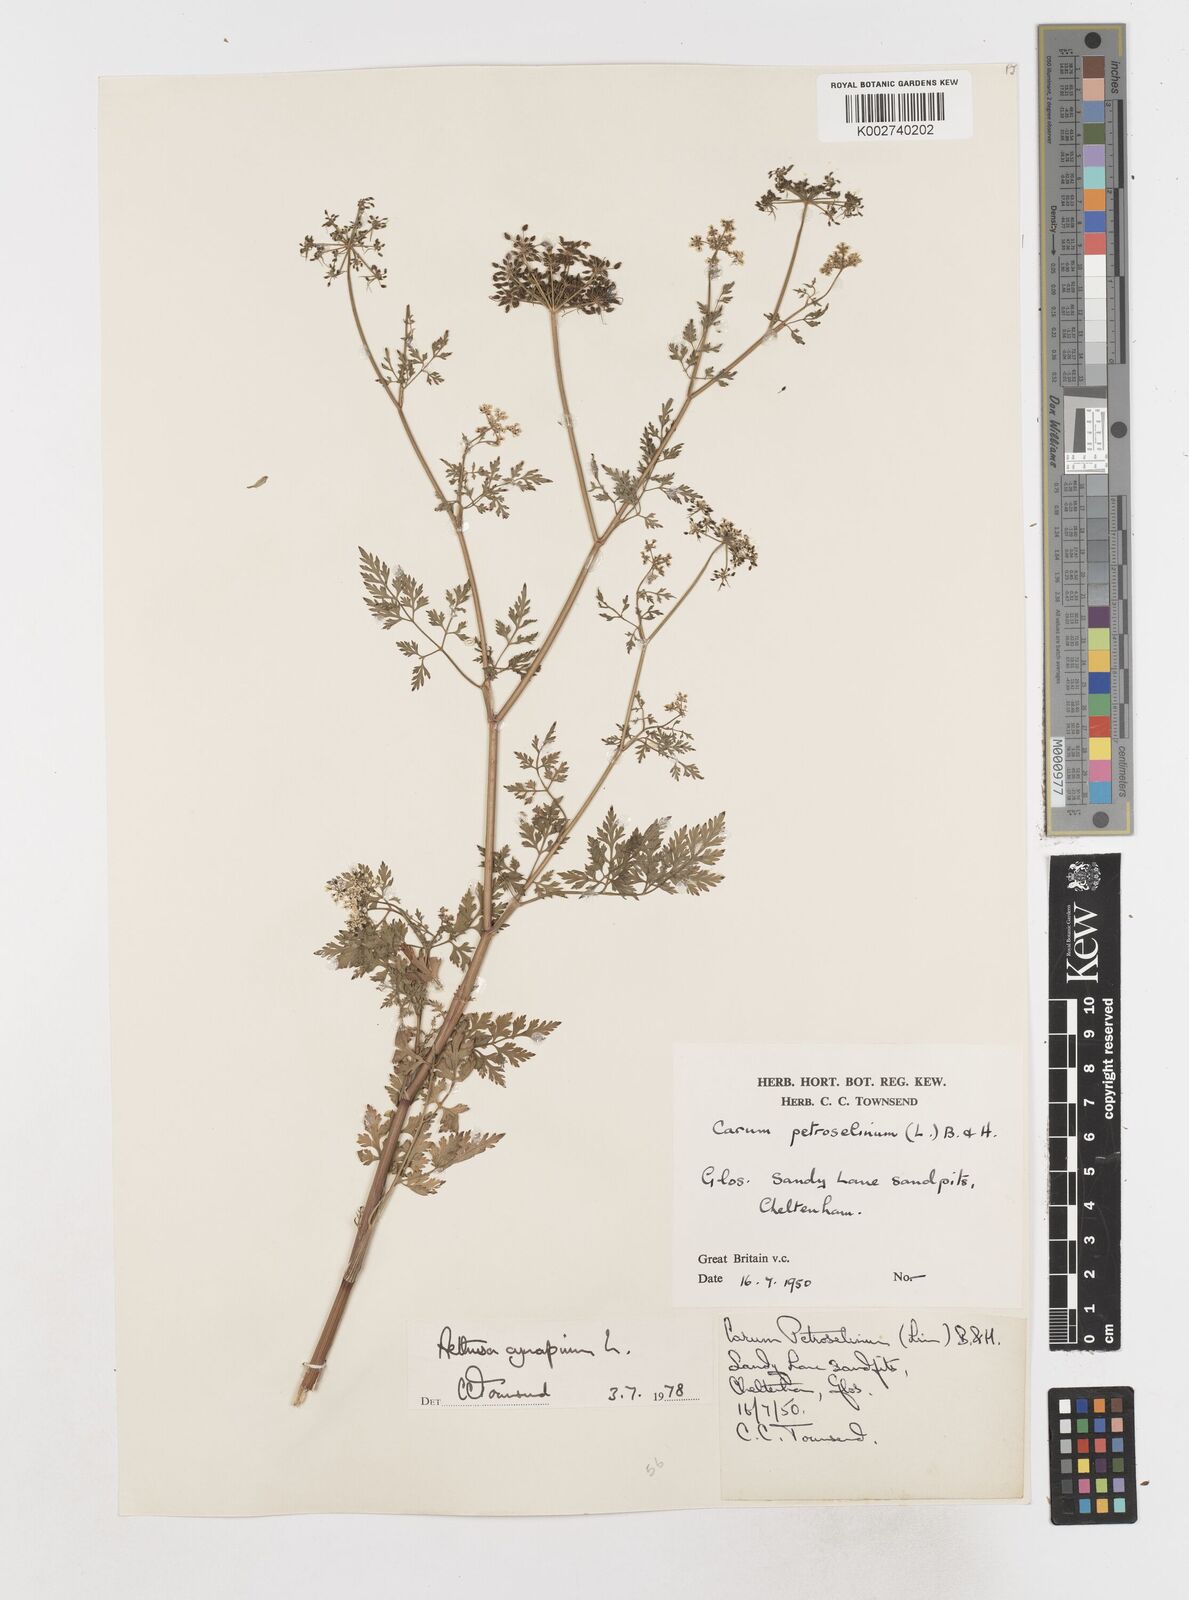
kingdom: Plantae
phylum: Tracheophyta
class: Magnoliopsida
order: Apiales
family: Apiaceae
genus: Aethusa
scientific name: Aethusa cynapium
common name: Fool's parsley
